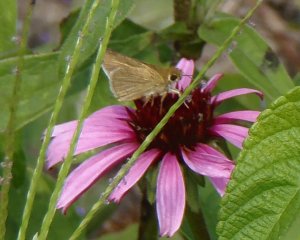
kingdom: Animalia
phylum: Arthropoda
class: Insecta
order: Lepidoptera
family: Hesperiidae
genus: Nastra
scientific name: Nastra lherminier
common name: Swarthy Skipper
